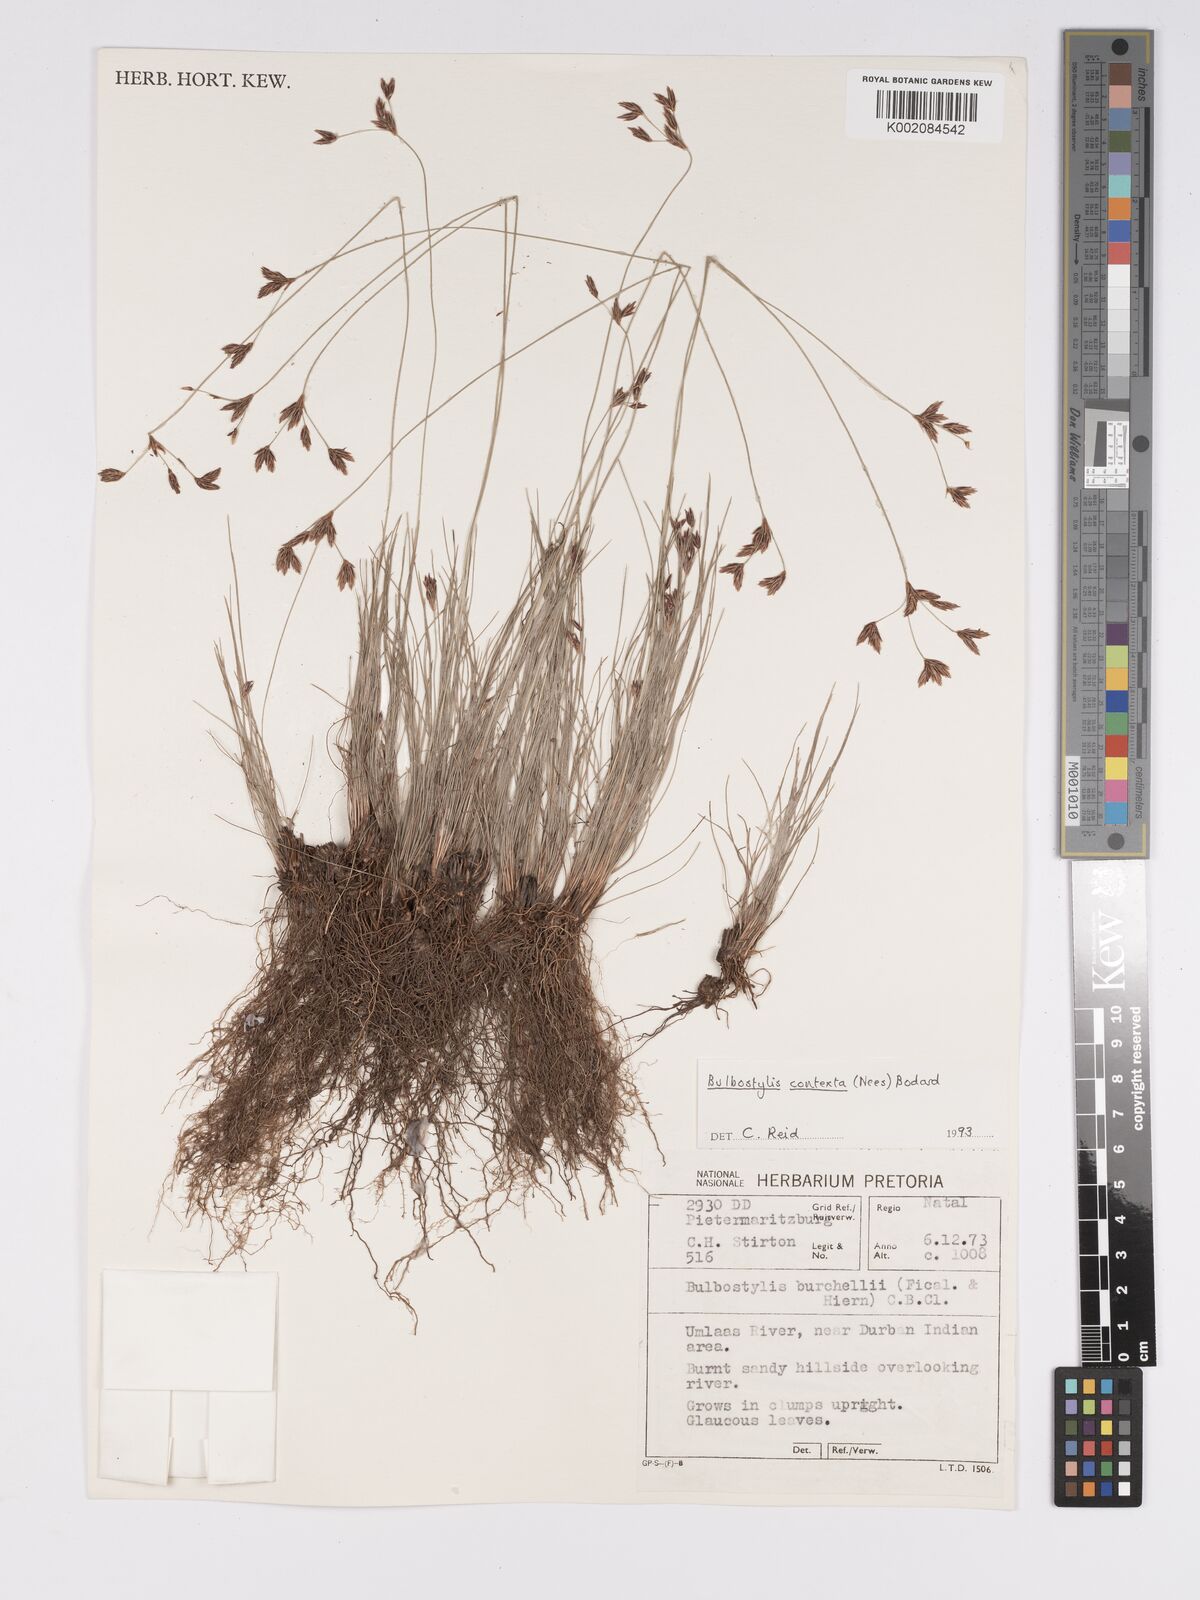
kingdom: Plantae
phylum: Tracheophyta
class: Liliopsida
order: Poales
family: Cyperaceae
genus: Bulbostylis
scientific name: Bulbostylis contexta
